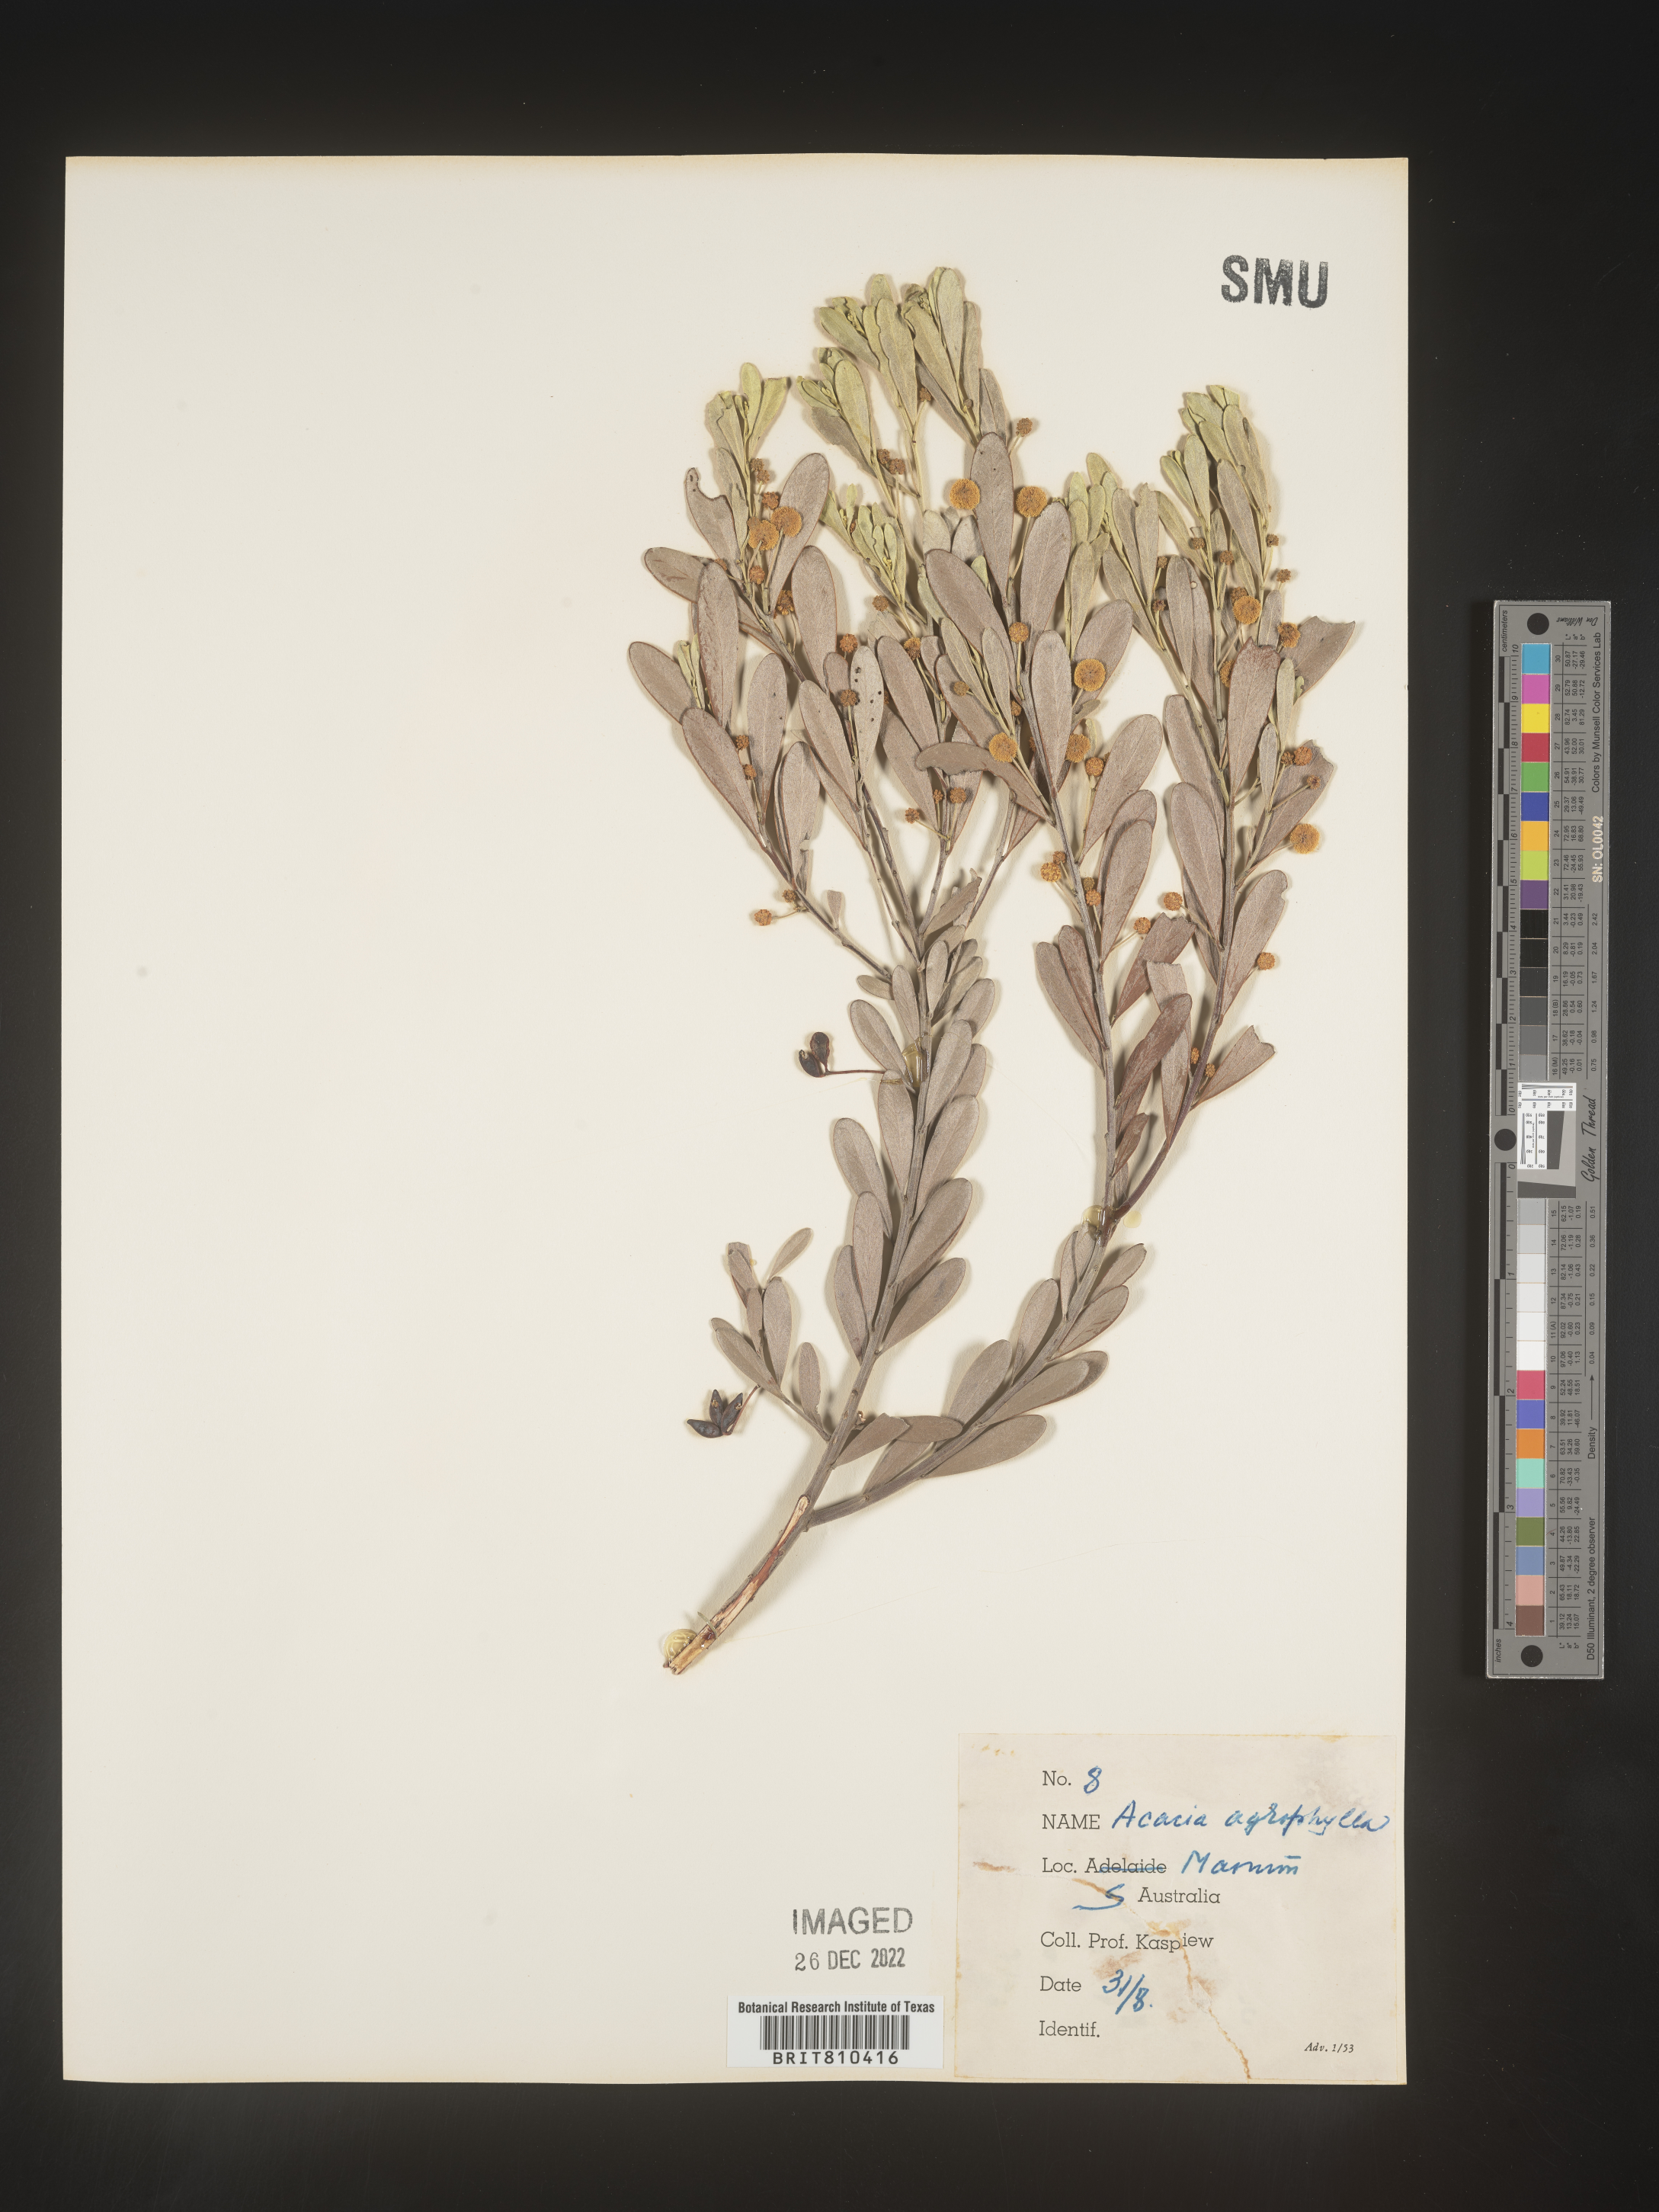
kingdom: Plantae
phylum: Tracheophyta
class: Magnoliopsida
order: Fabales
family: Fabaceae
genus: Acacia
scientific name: Acacia
